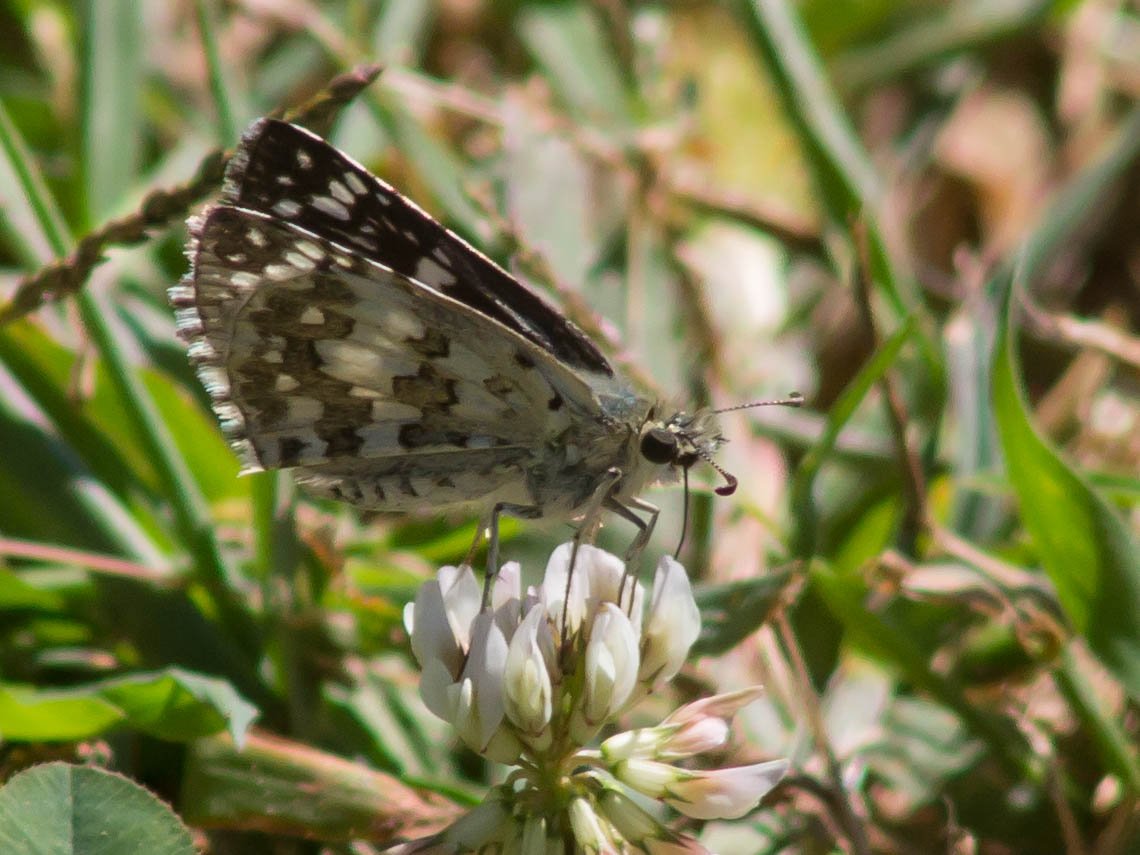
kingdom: Animalia
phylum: Arthropoda
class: Insecta
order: Lepidoptera
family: Hesperiidae
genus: Pyrgus
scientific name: Pyrgus communis
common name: Common Checkered-Skipper
